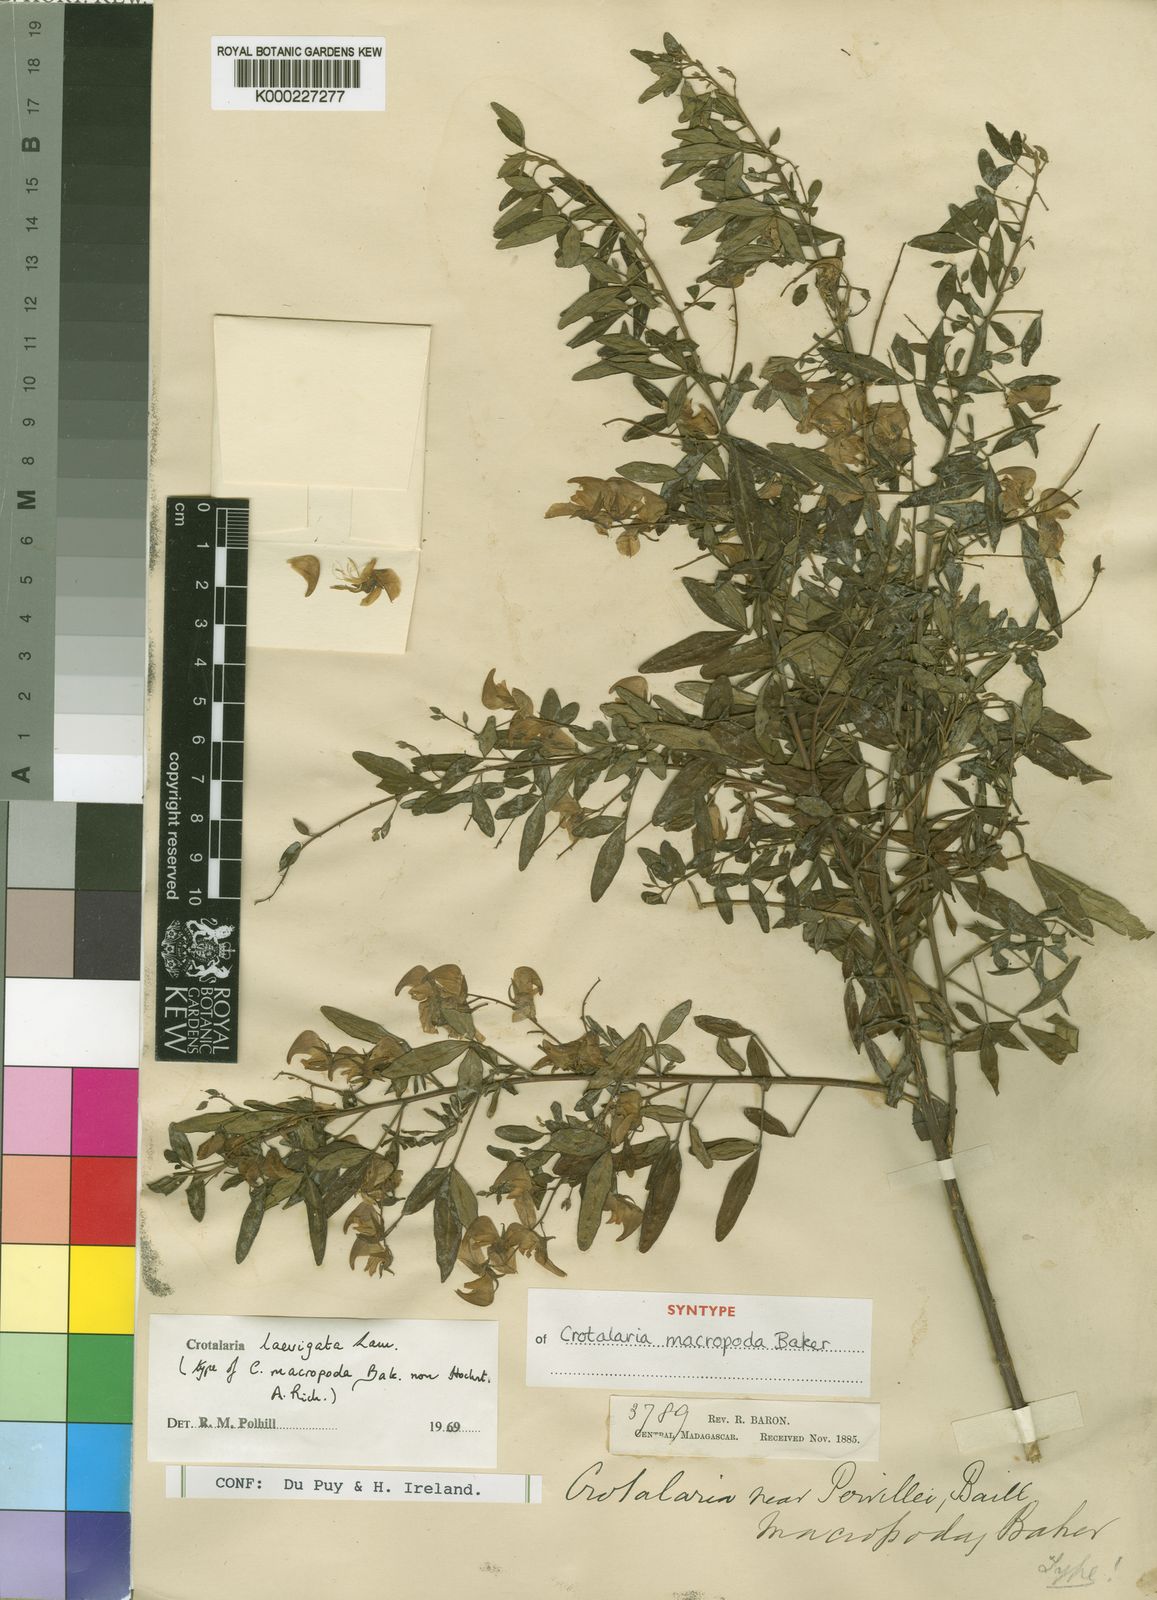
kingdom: Plantae
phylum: Tracheophyta
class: Magnoliopsida
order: Fabales
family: Fabaceae
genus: Crotalaria
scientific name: Crotalaria laevigata
